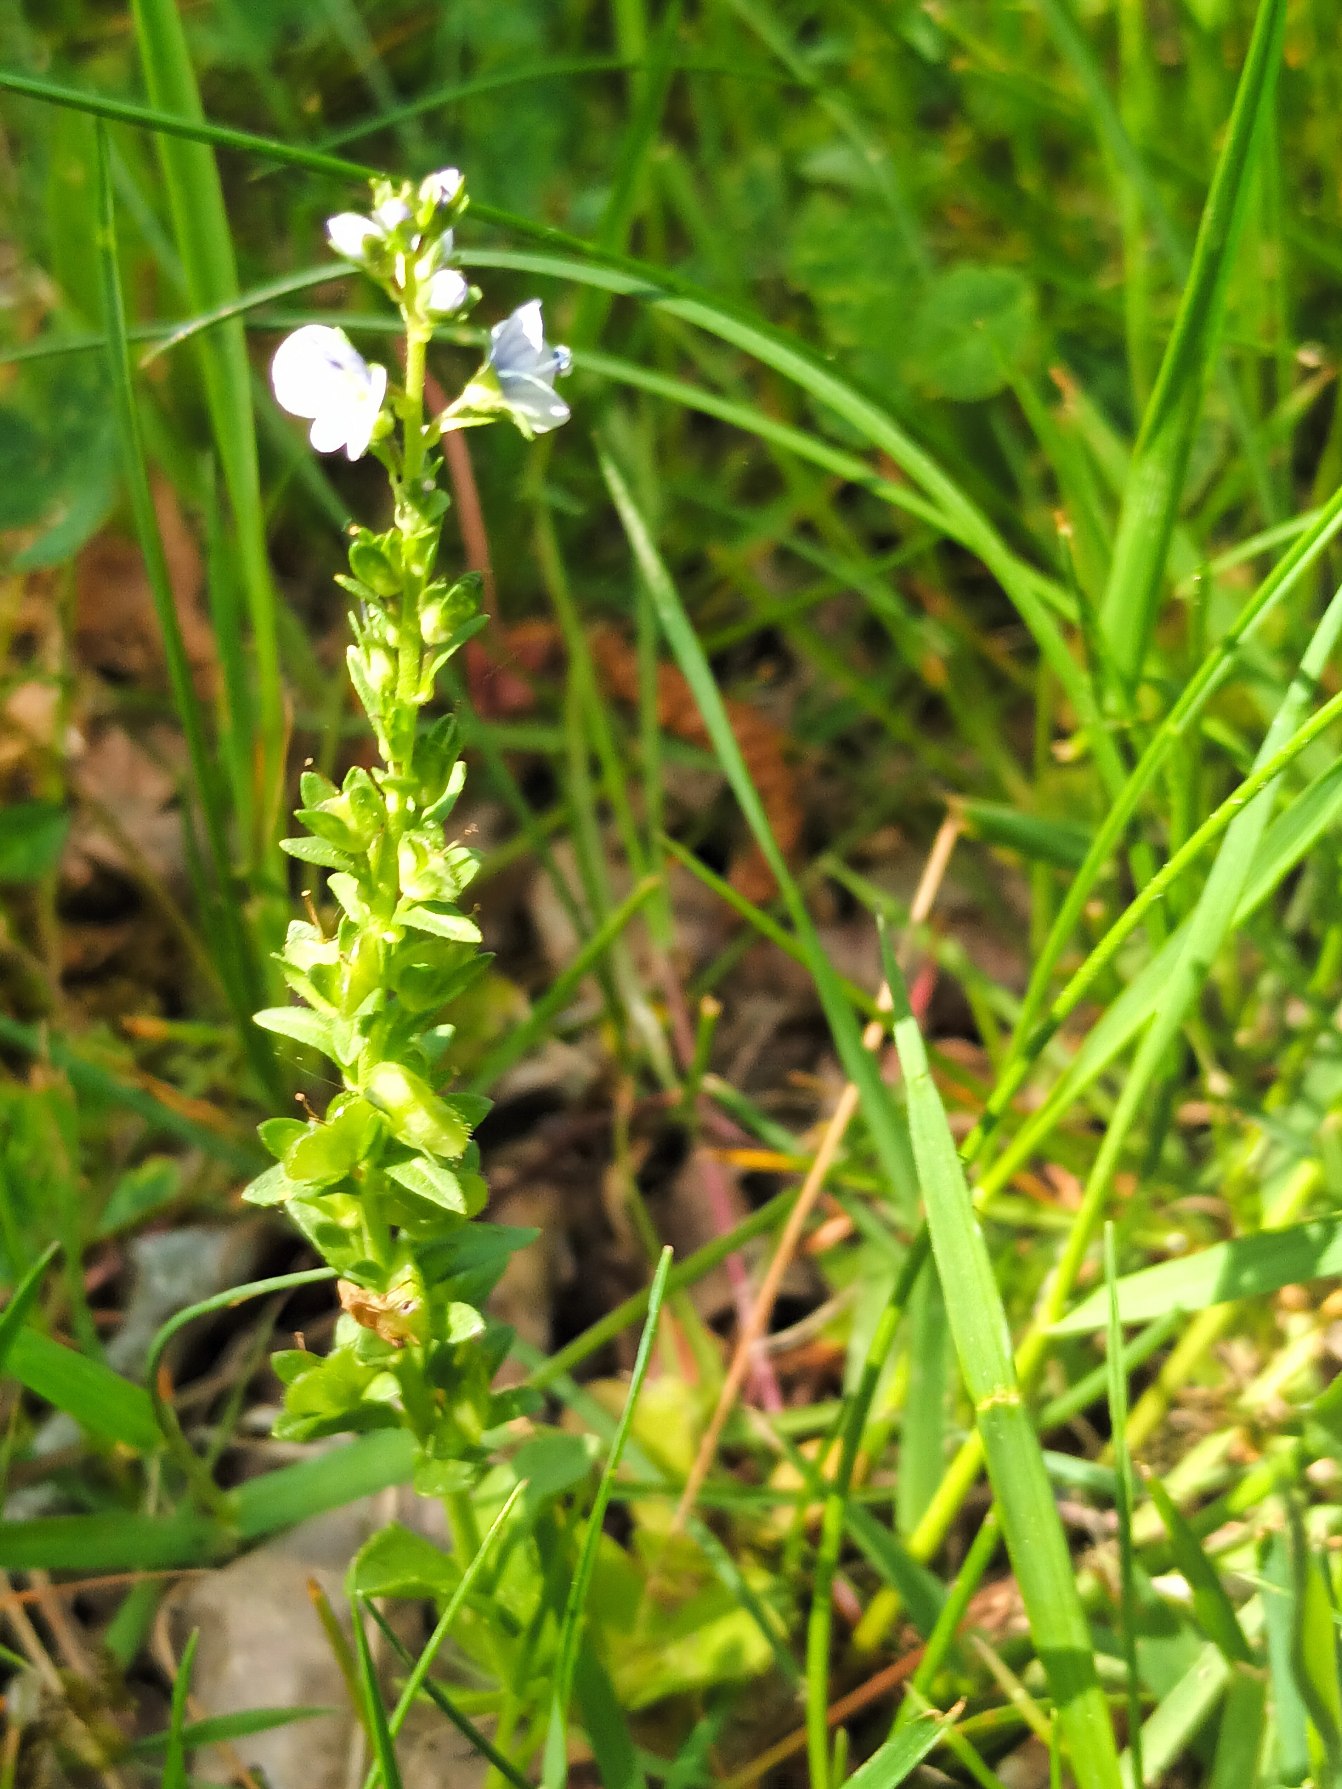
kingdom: Plantae
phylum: Tracheophyta
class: Magnoliopsida
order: Lamiales
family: Plantaginaceae
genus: Veronica
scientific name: Veronica serpyllifolia
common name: Glat ærenpris
